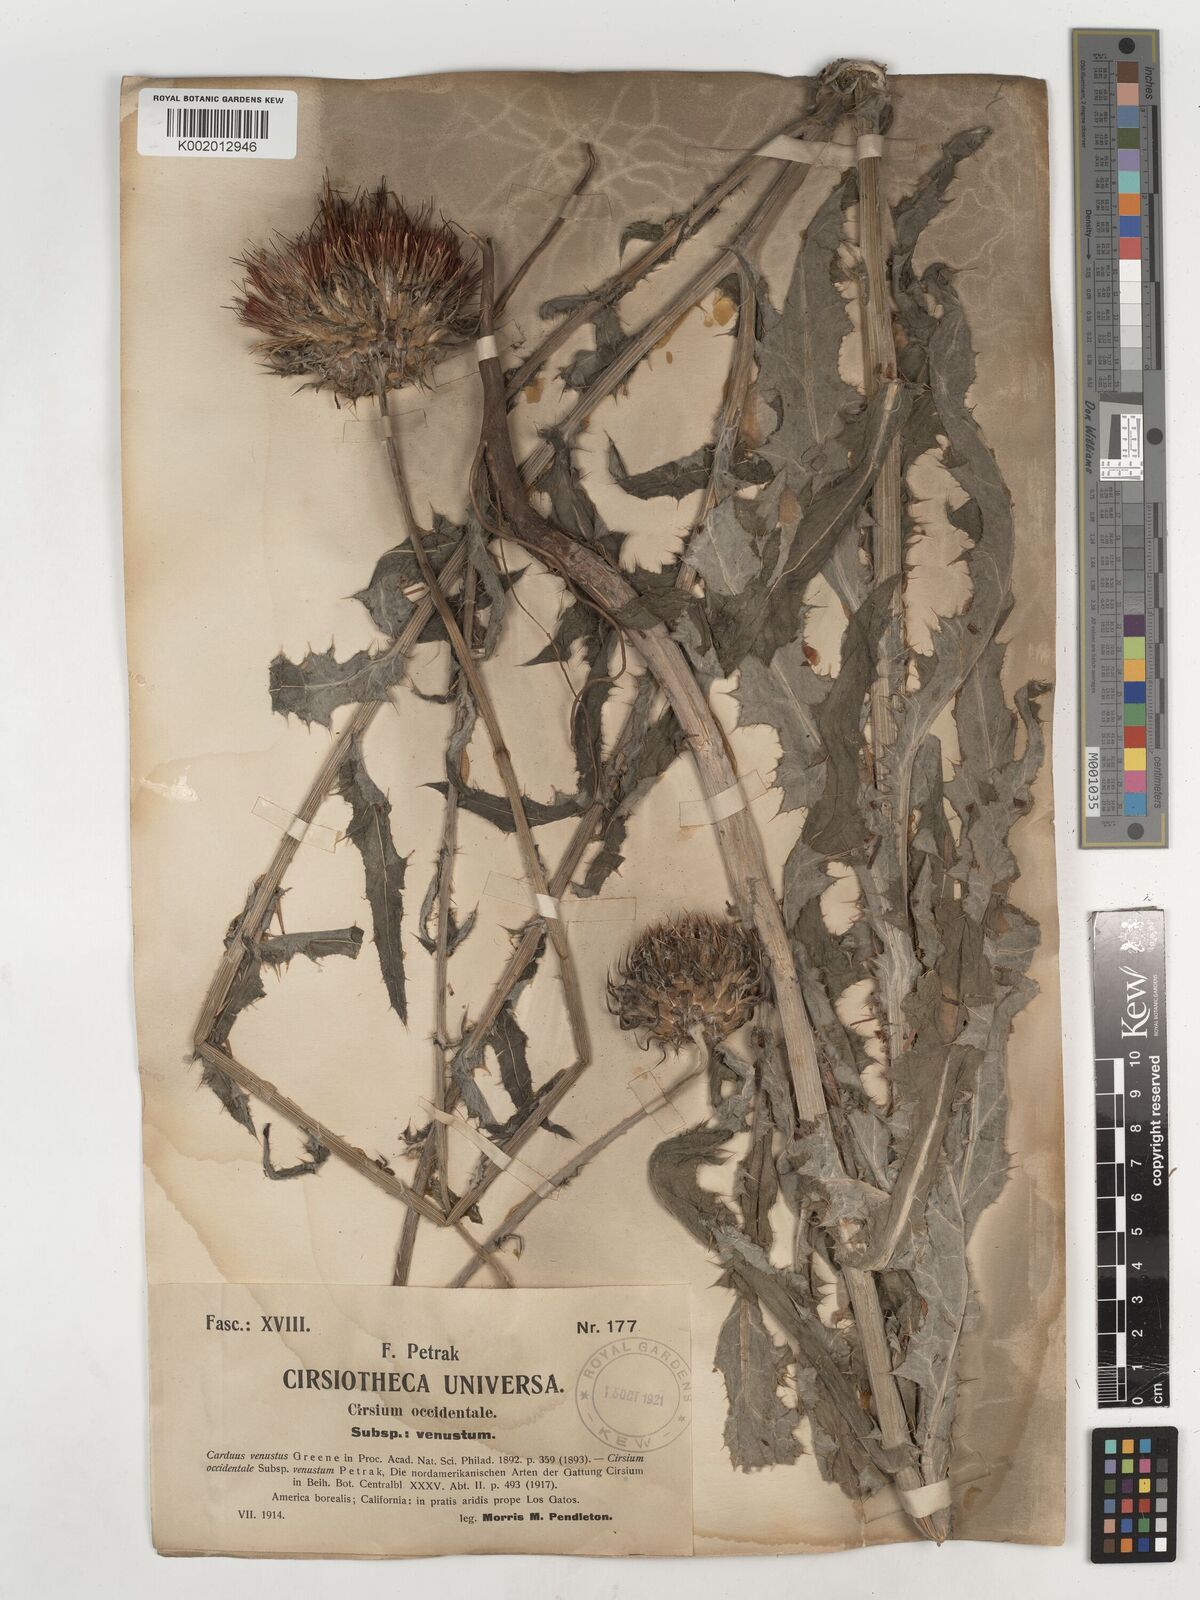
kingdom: Plantae
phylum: Tracheophyta
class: Magnoliopsida
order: Asterales
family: Asteraceae
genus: Cirsium
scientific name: Cirsium occidentale
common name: Western thistle
